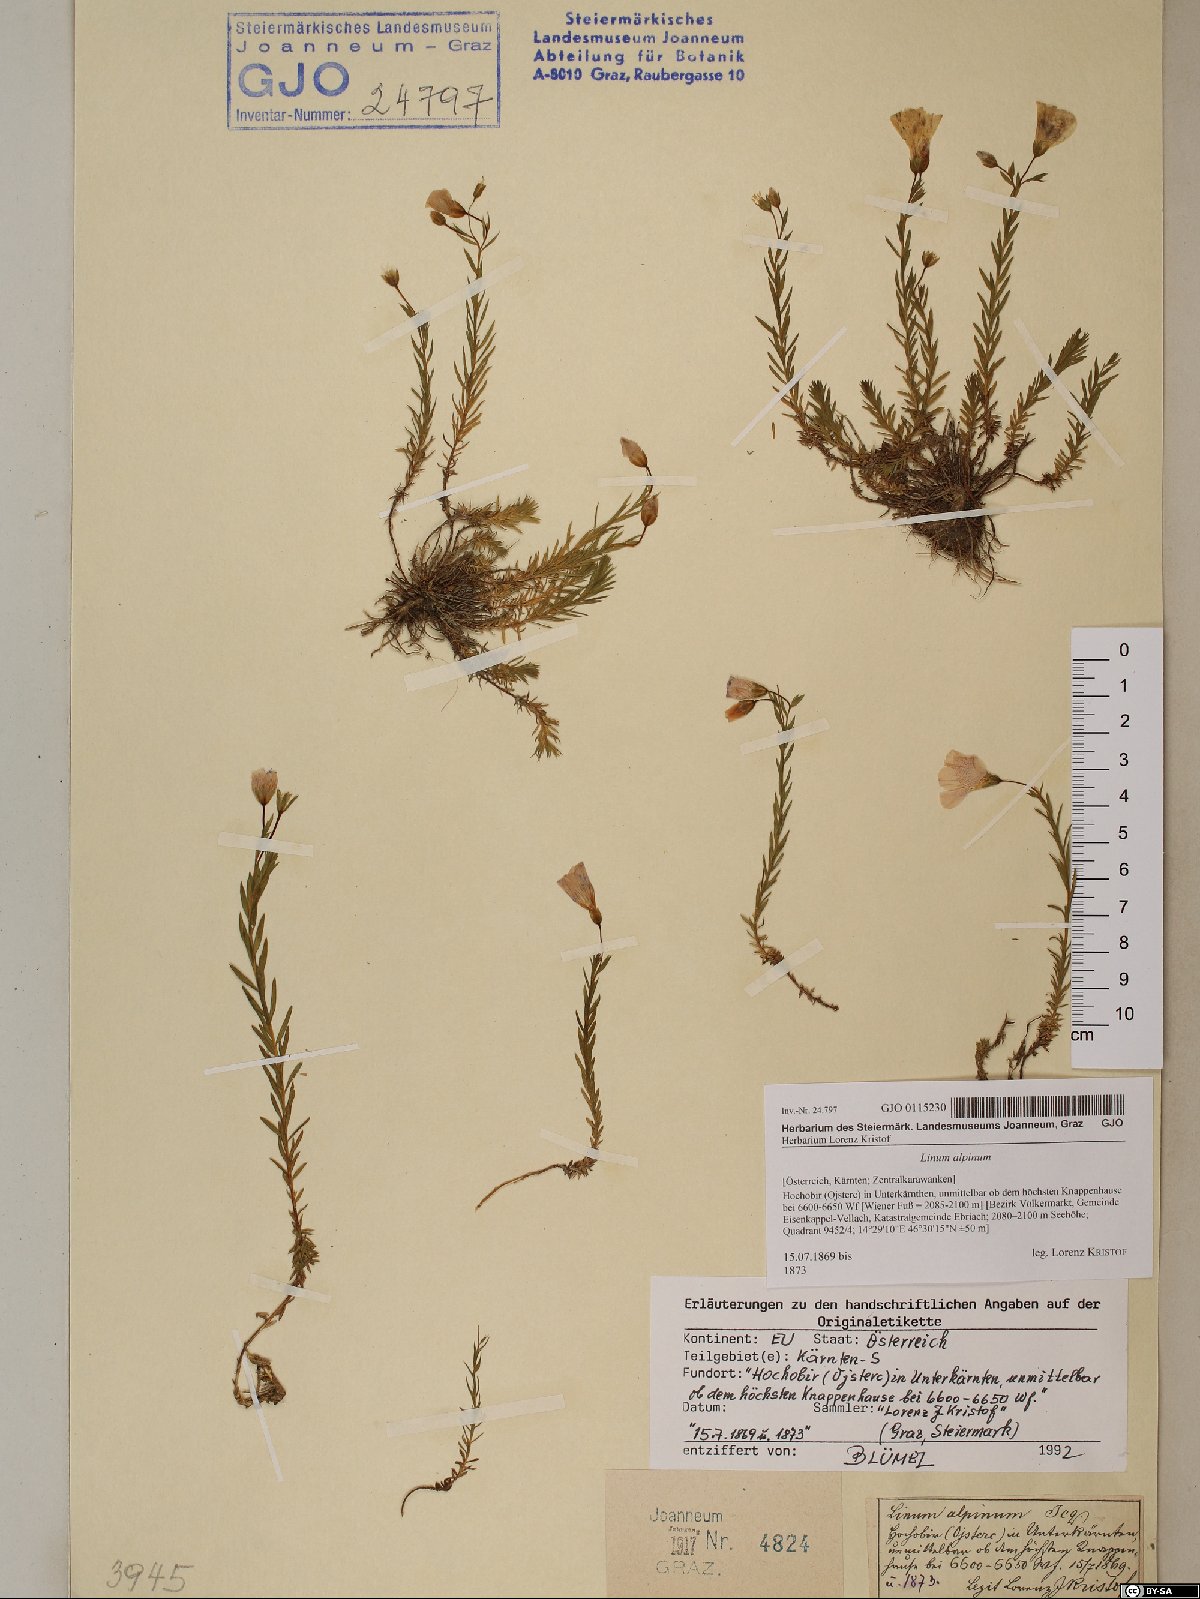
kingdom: Plantae
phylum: Tracheophyta
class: Magnoliopsida
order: Malpighiales
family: Linaceae
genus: Linum
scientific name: Linum alpinum
